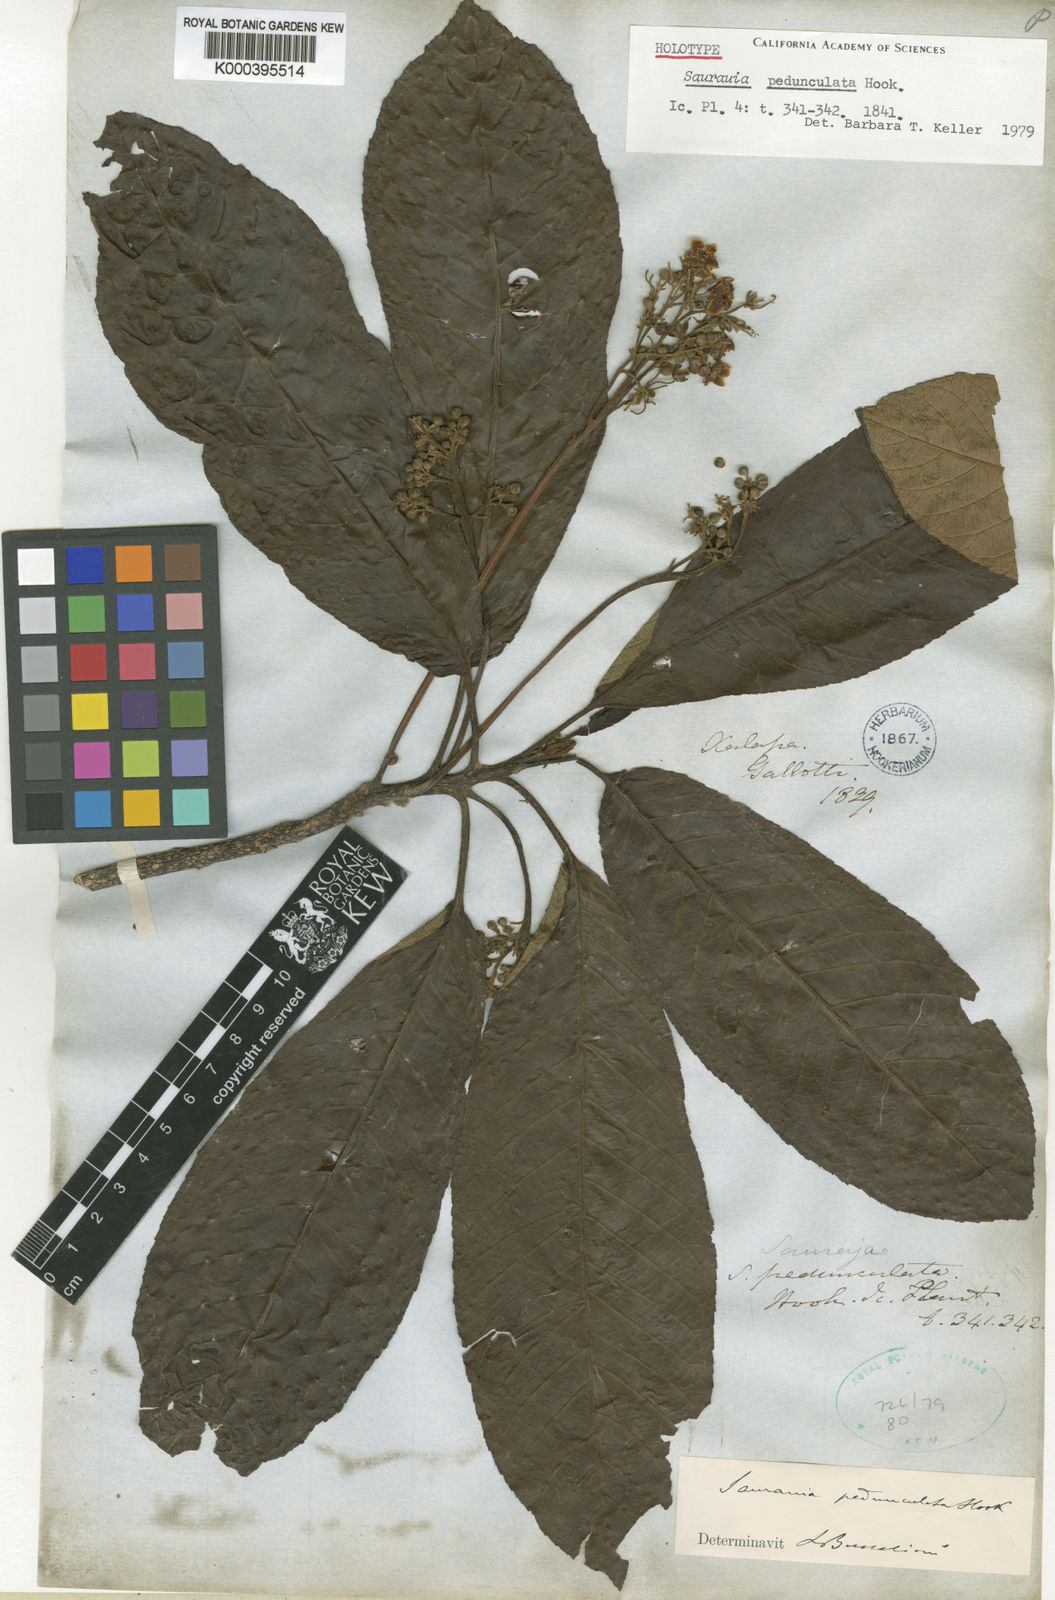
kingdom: Plantae
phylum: Tracheophyta
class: Magnoliopsida
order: Ericales
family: Actinidiaceae
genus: Saurauia
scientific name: Saurauia pedunculata
